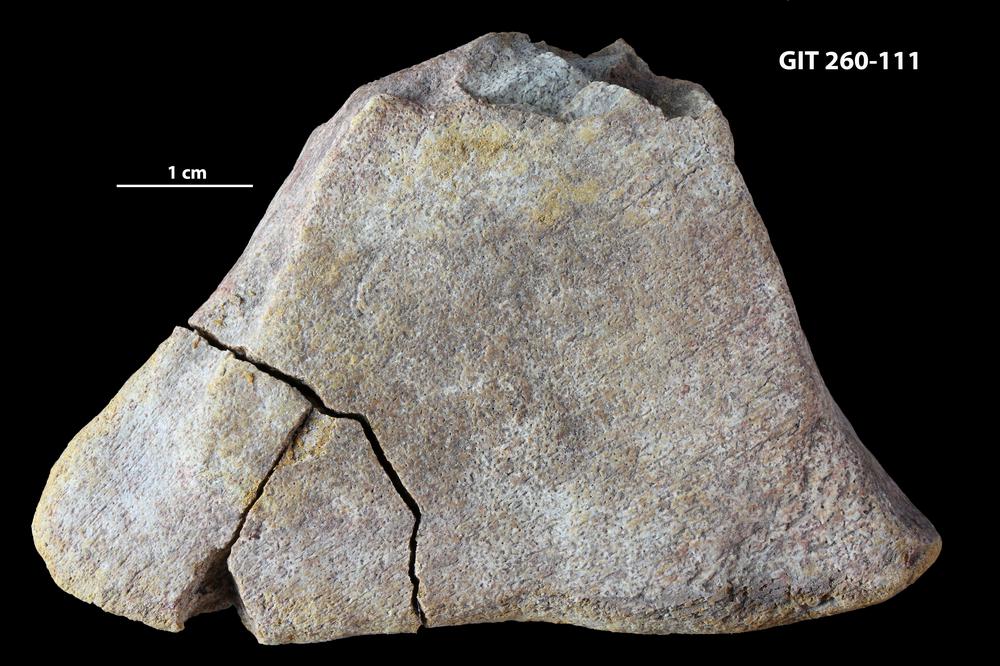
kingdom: Animalia
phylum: Chordata
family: Homostiidae
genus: Homostius
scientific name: Homostius
